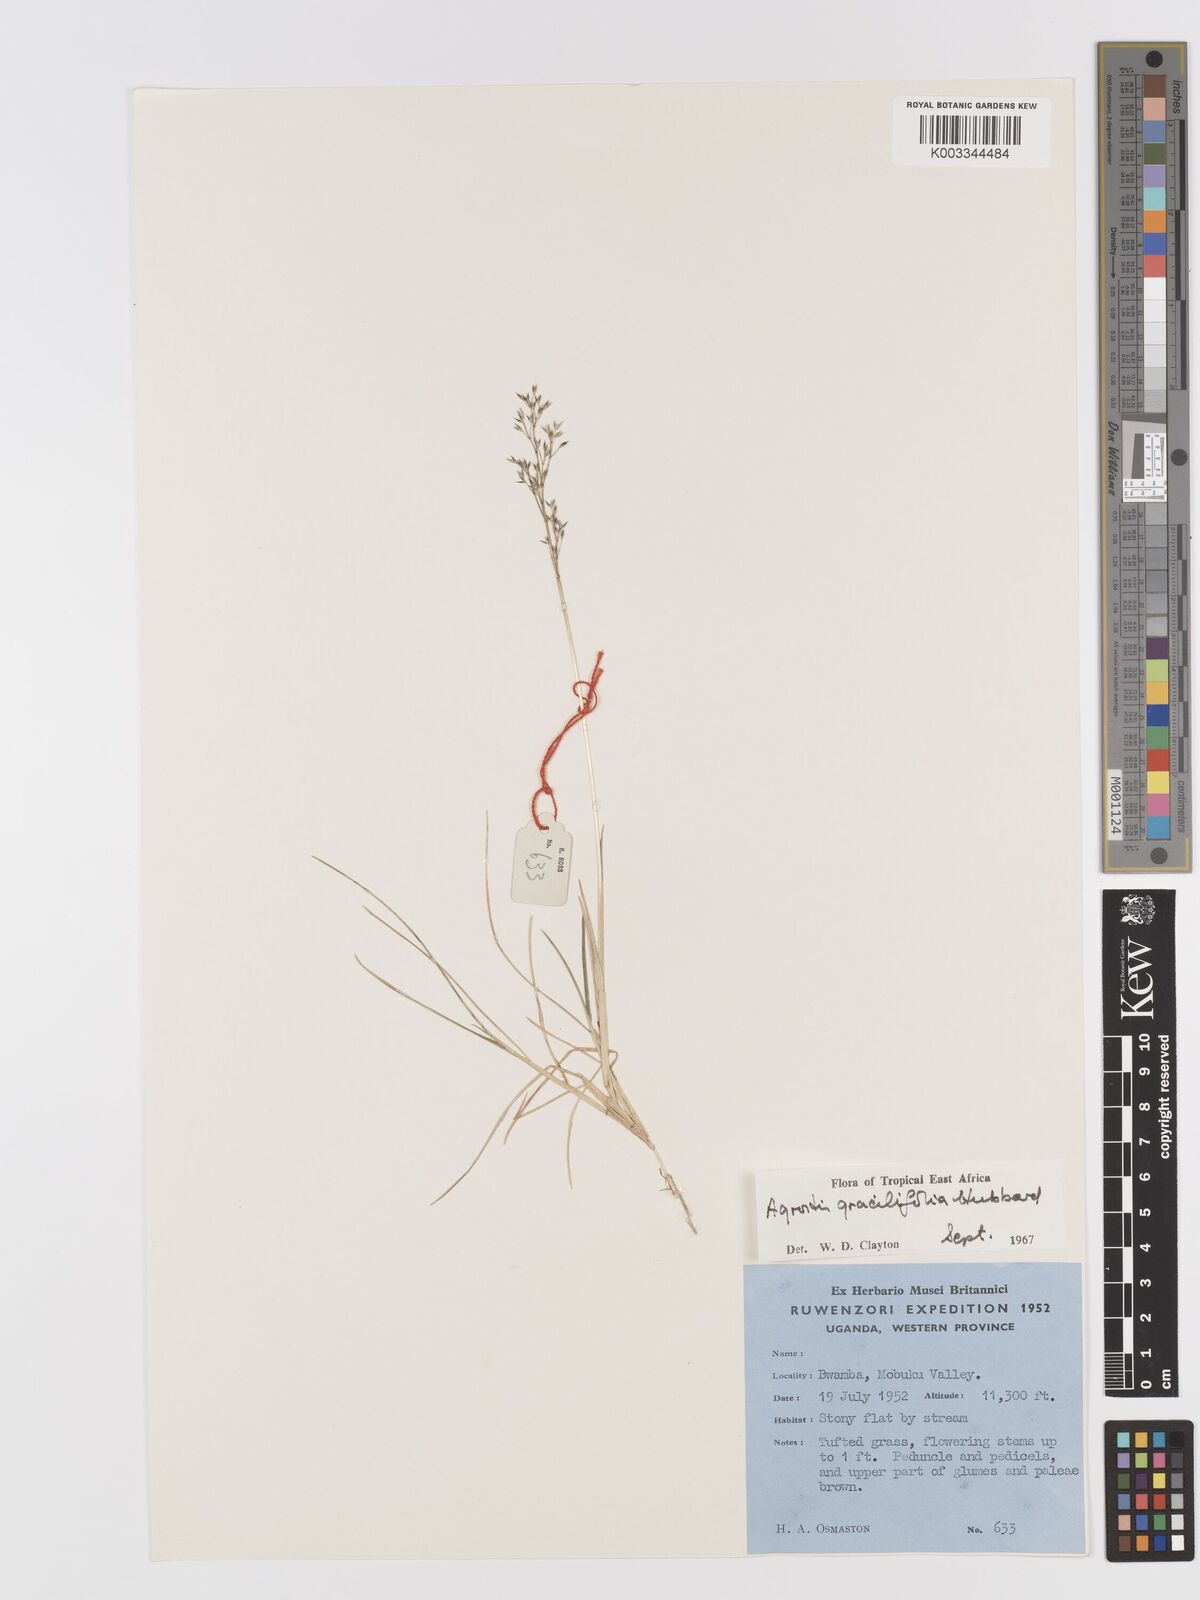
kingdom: Plantae
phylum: Tracheophyta
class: Liliopsida
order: Poales
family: Poaceae
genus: Agrostis
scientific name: Agrostis gracilifolia
